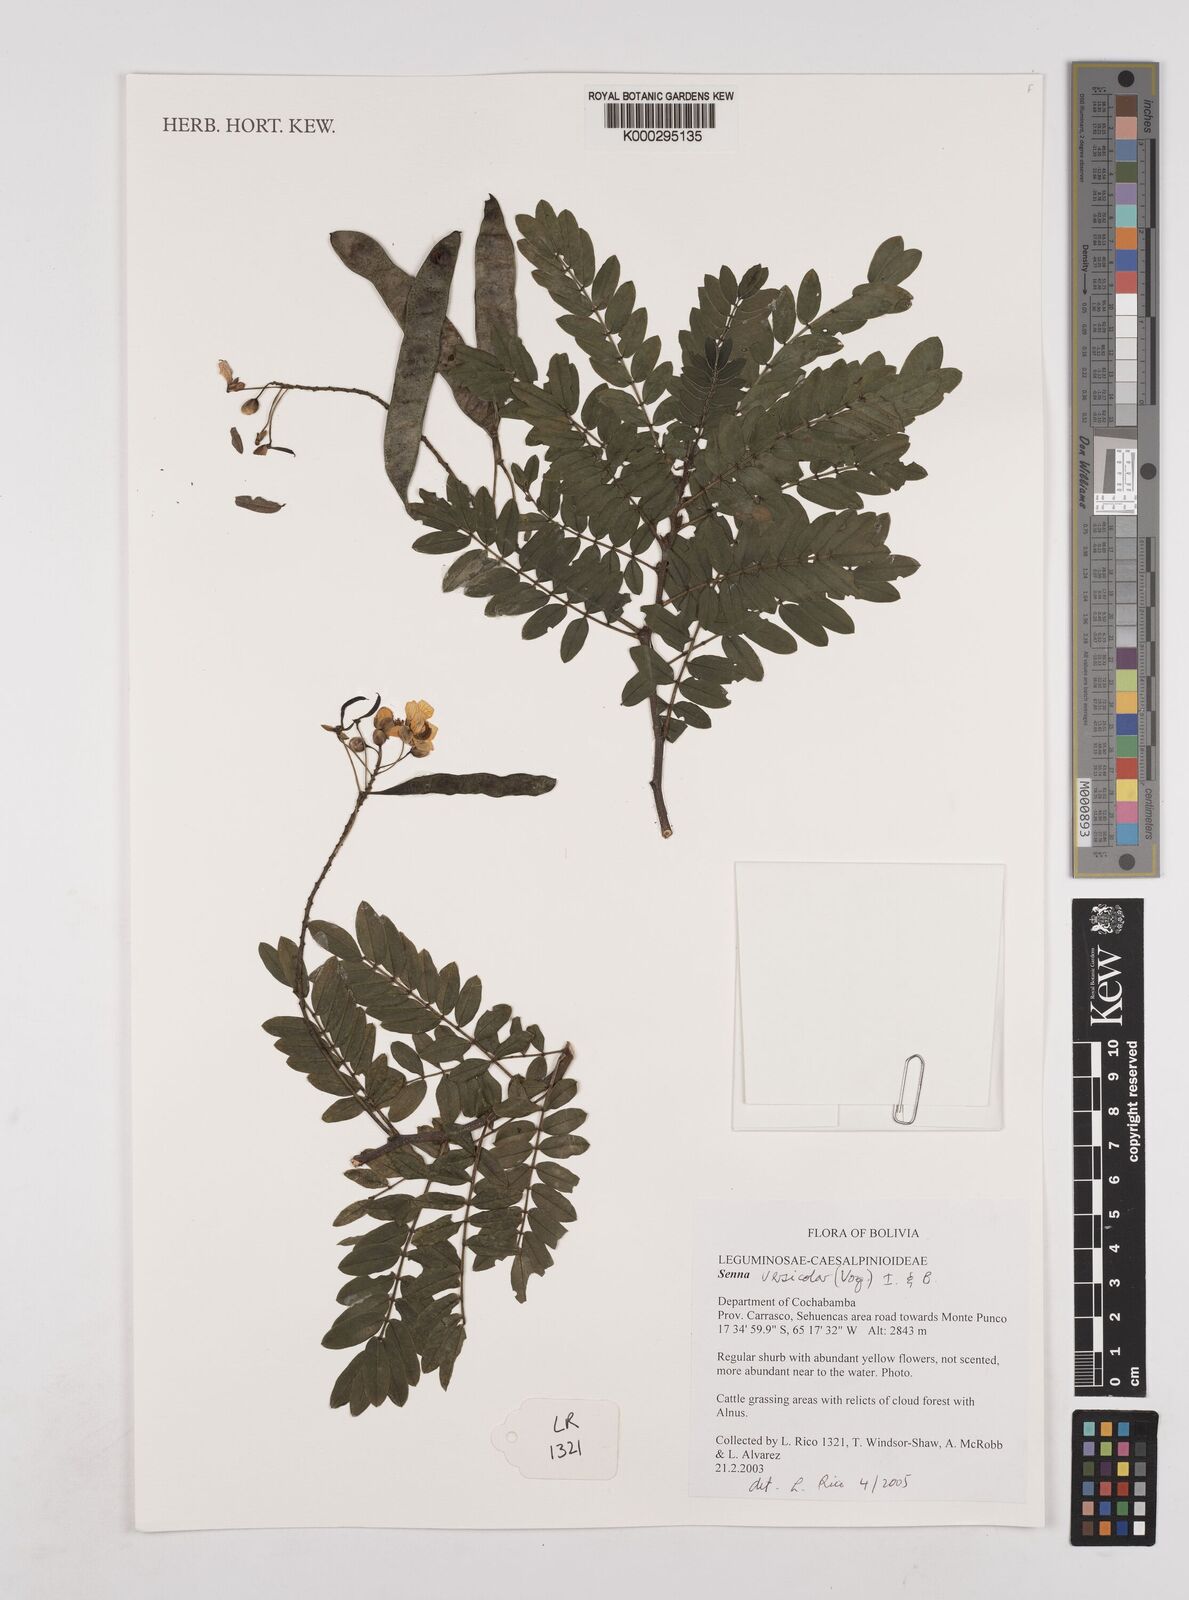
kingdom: Plantae
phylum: Tracheophyta
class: Magnoliopsida
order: Fabales
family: Fabaceae
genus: Senna
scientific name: Senna versicolor
